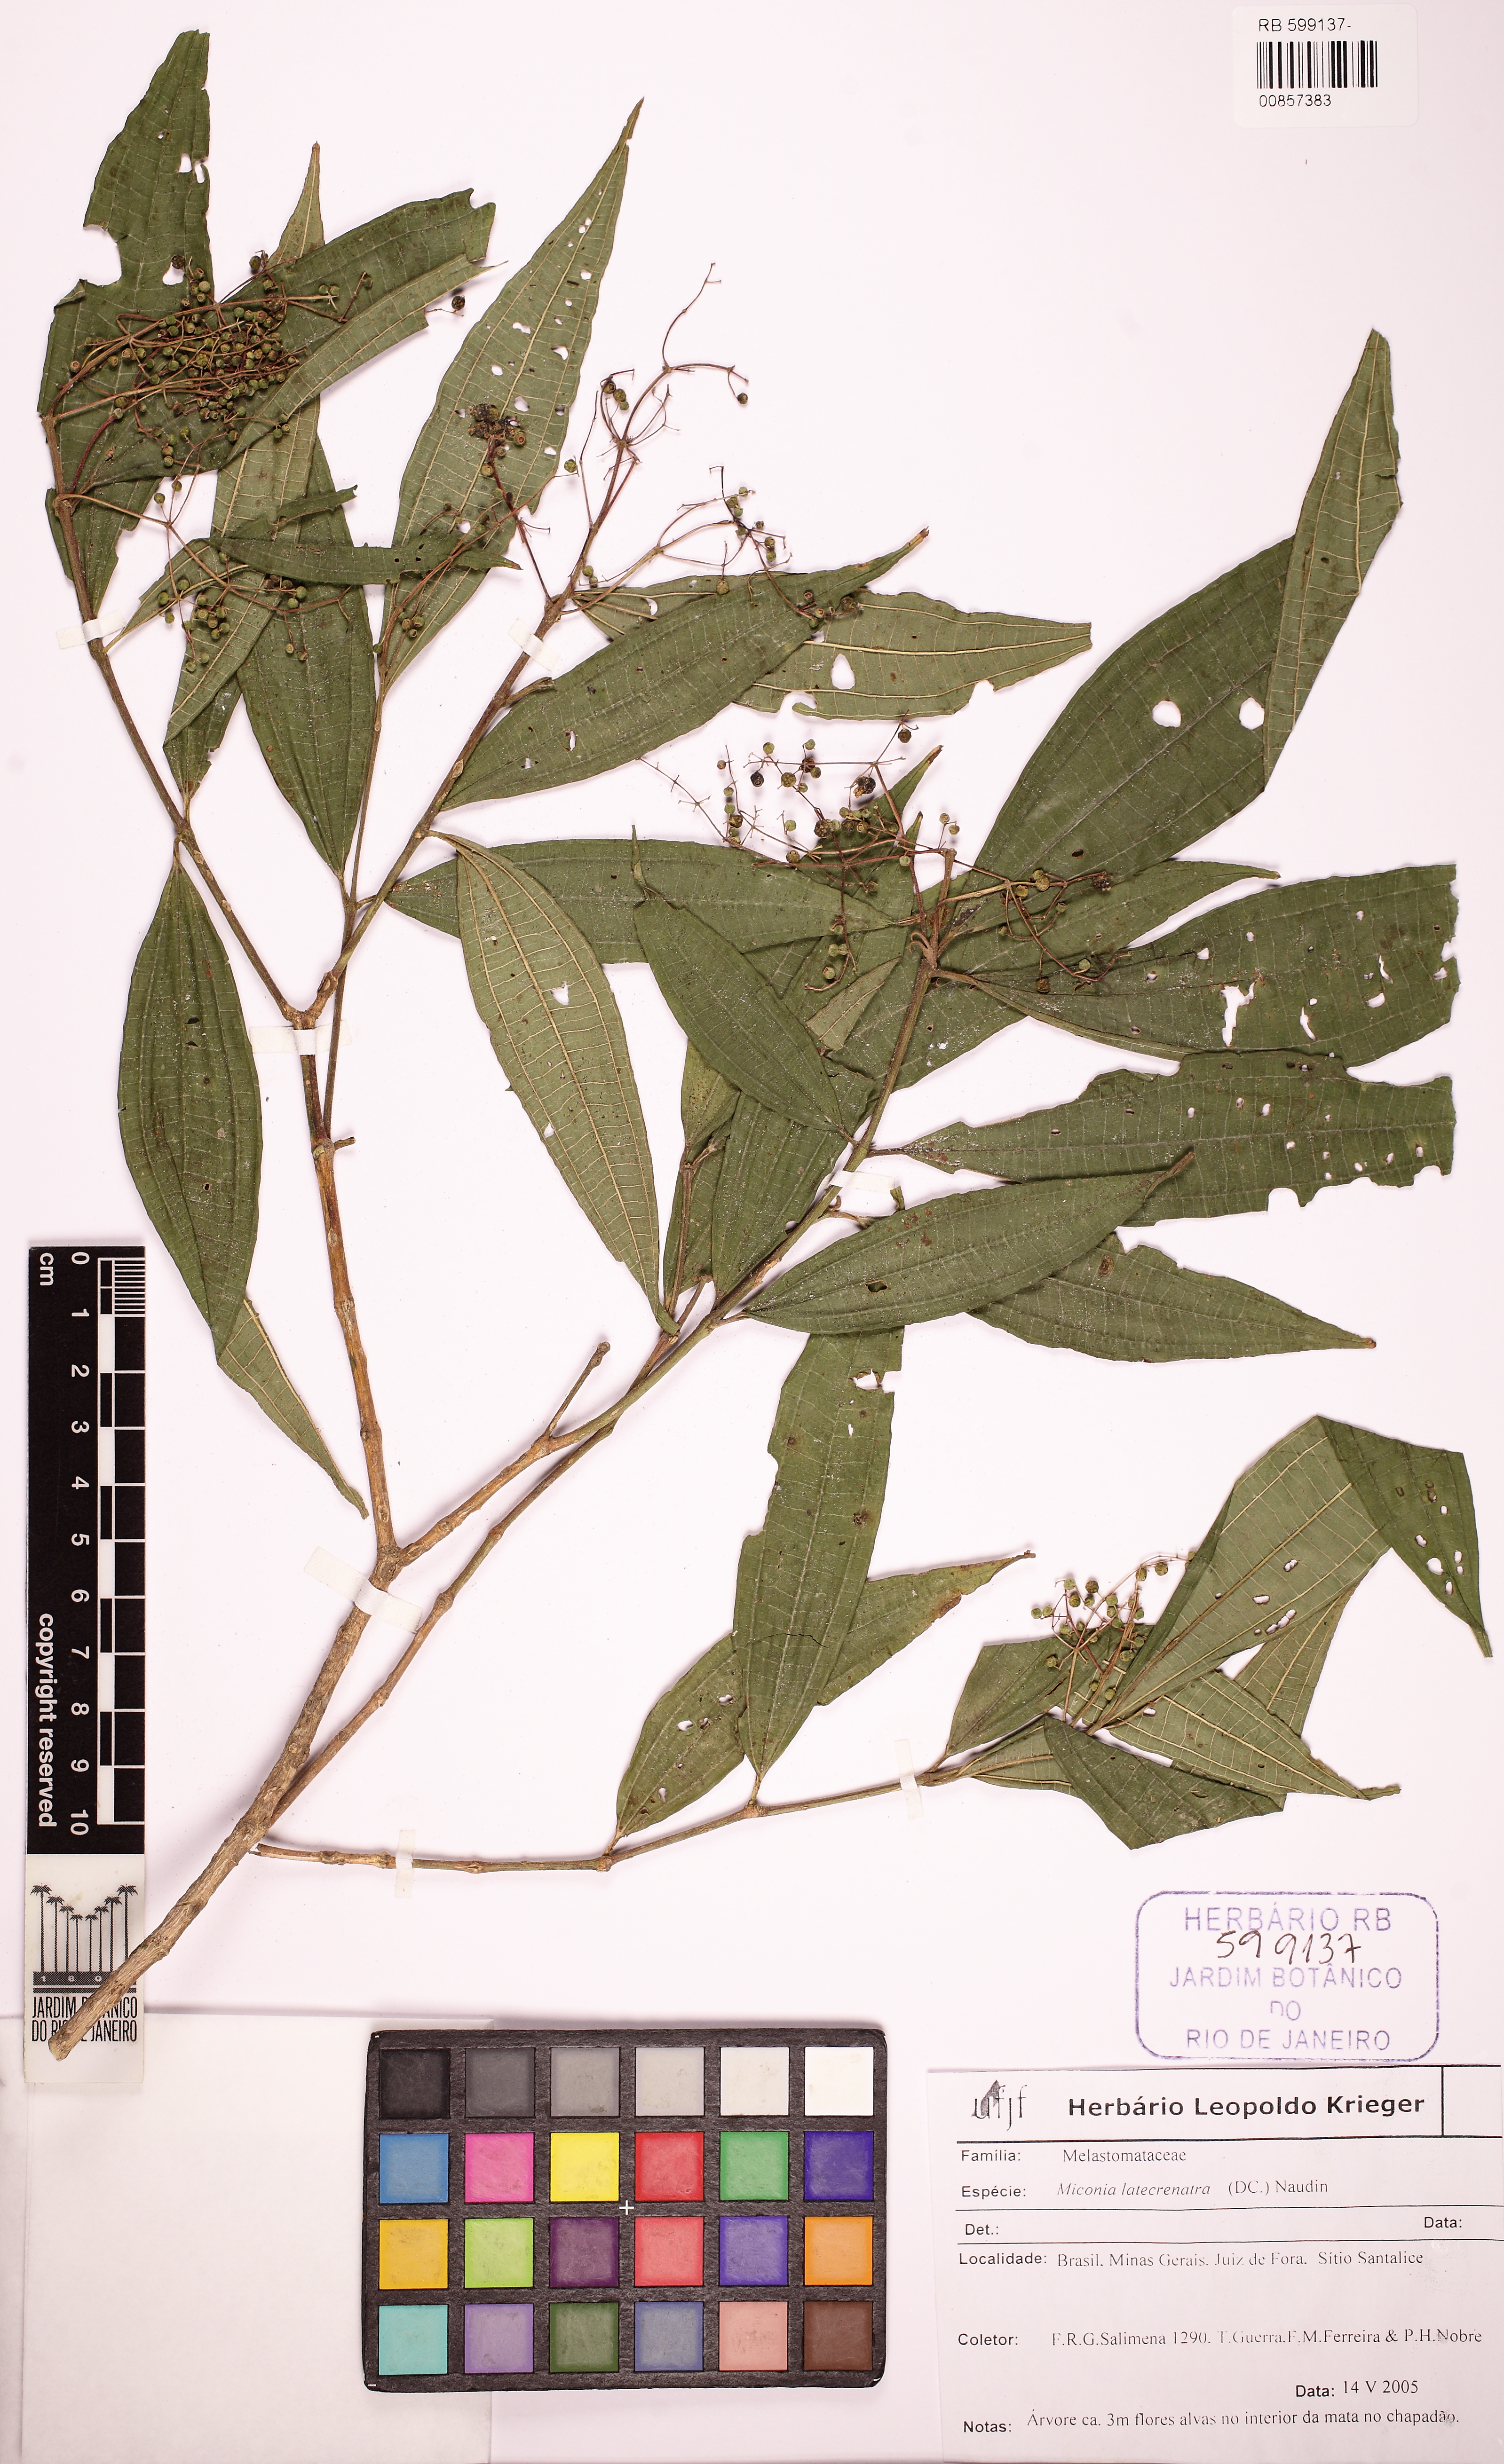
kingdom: Plantae
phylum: Tracheophyta
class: Magnoliopsida
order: Myrtales
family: Melastomataceae
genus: Miconia
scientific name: Miconia latecrenata
